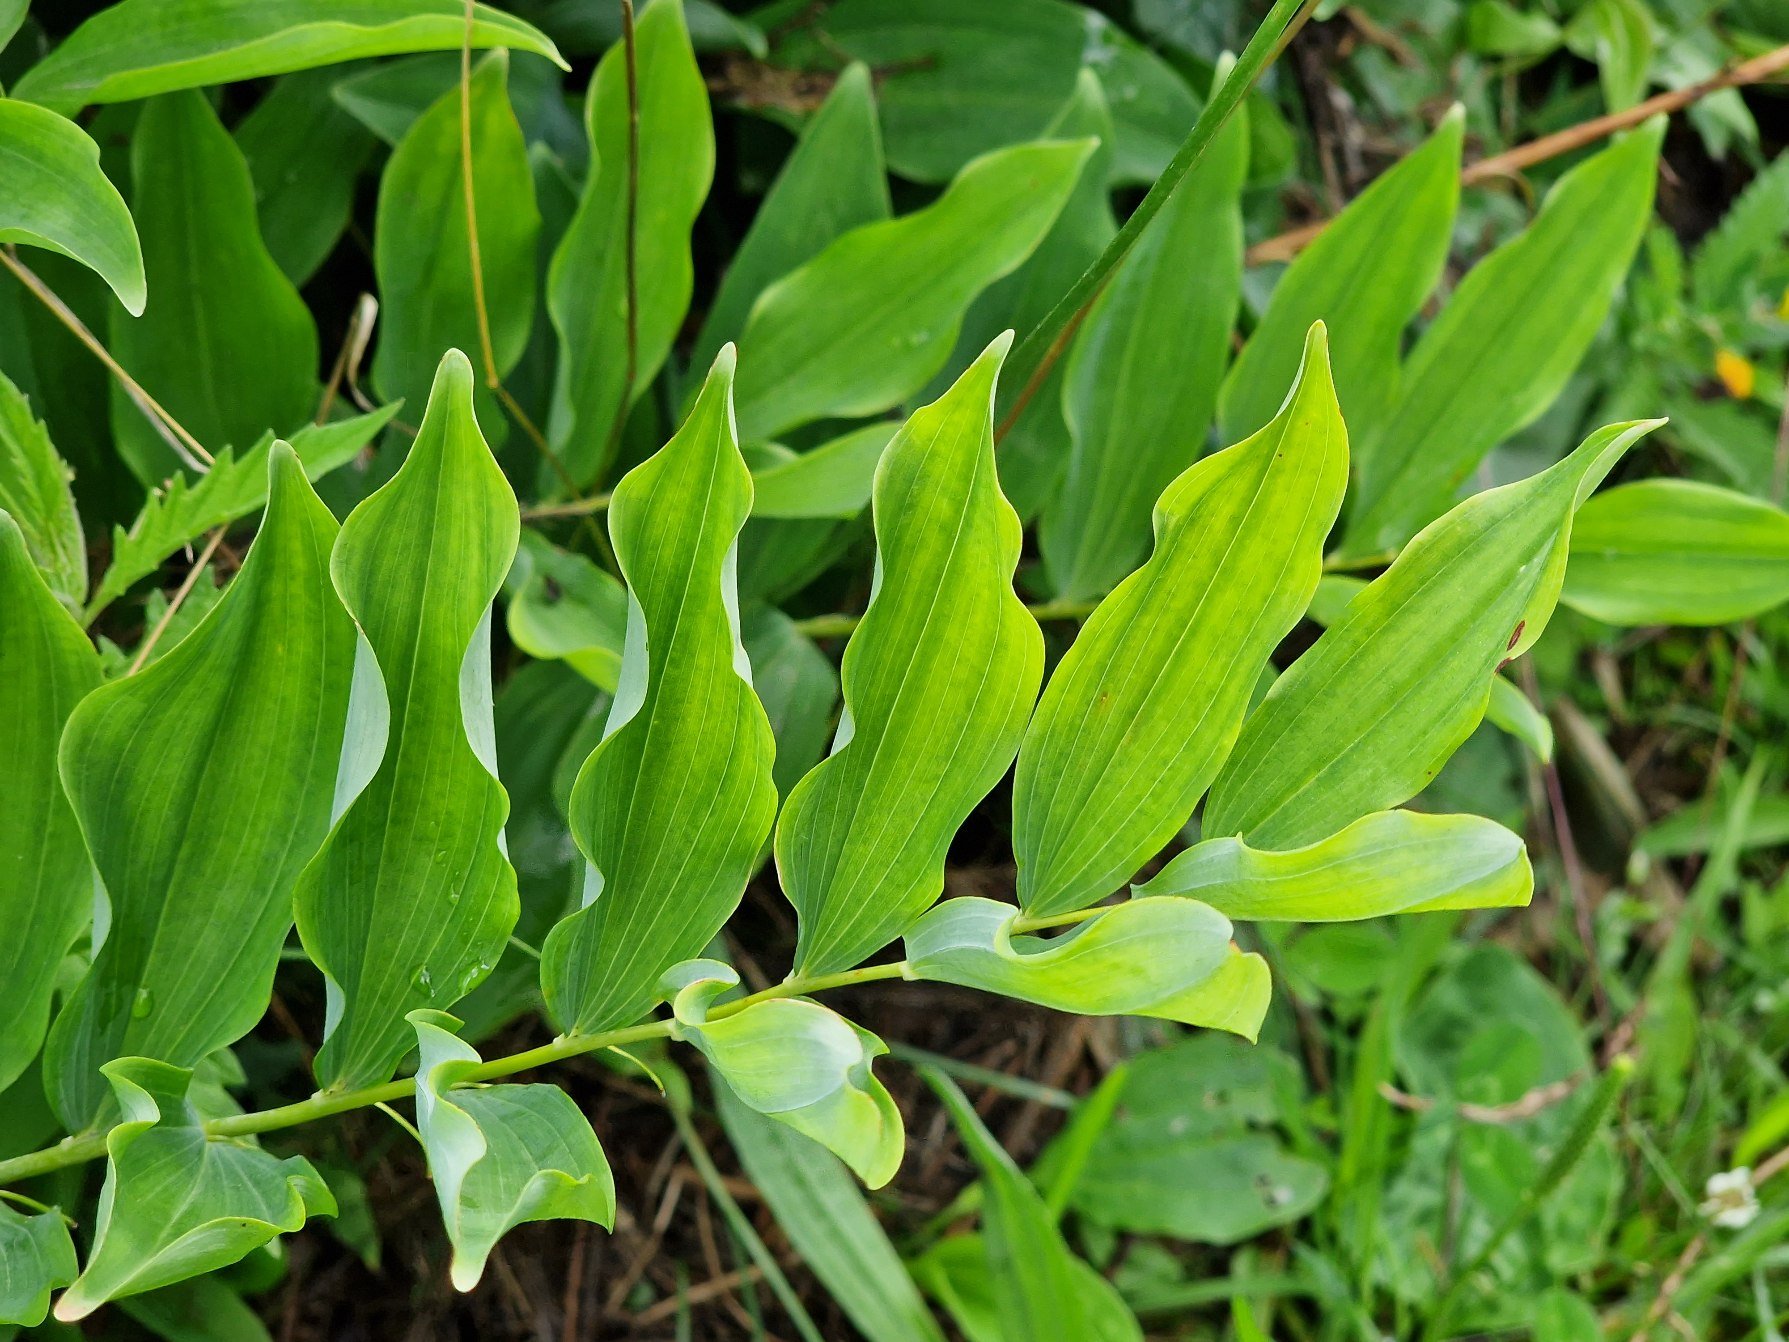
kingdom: Plantae
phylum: Tracheophyta
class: Liliopsida
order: Asparagales
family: Asparagaceae
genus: Polygonatum
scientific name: Polygonatum
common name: Konvalslægten
